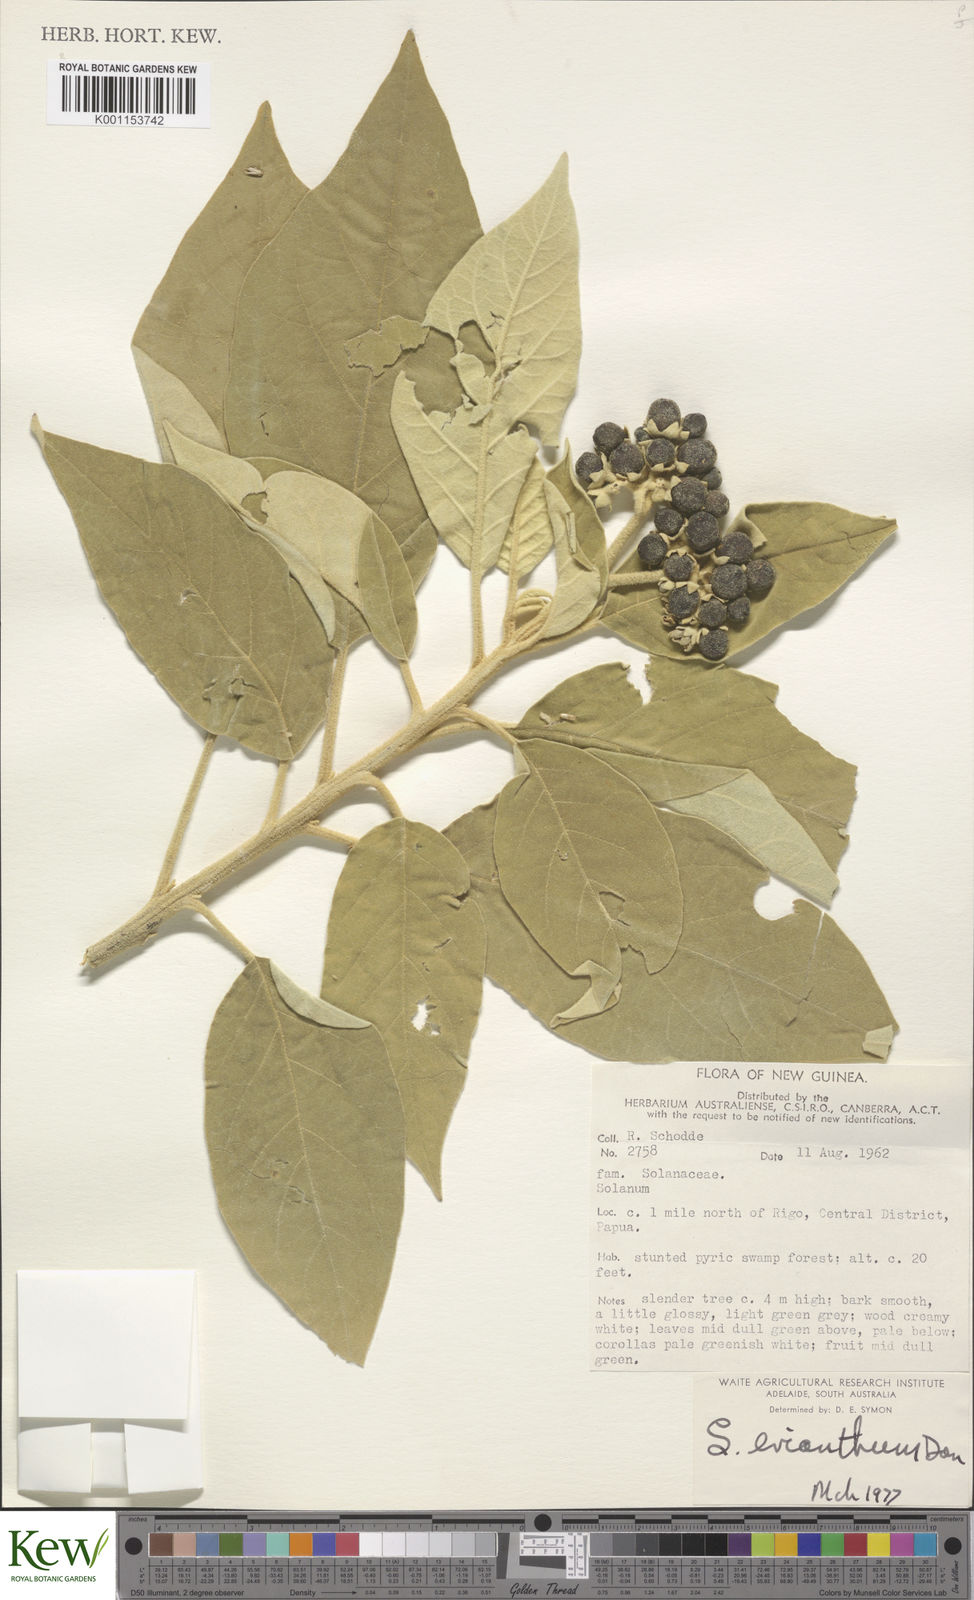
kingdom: Plantae
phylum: Tracheophyta
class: Magnoliopsida
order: Solanales
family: Solanaceae
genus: Solanum
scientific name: Solanum erianthum
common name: Tobacco-tree
